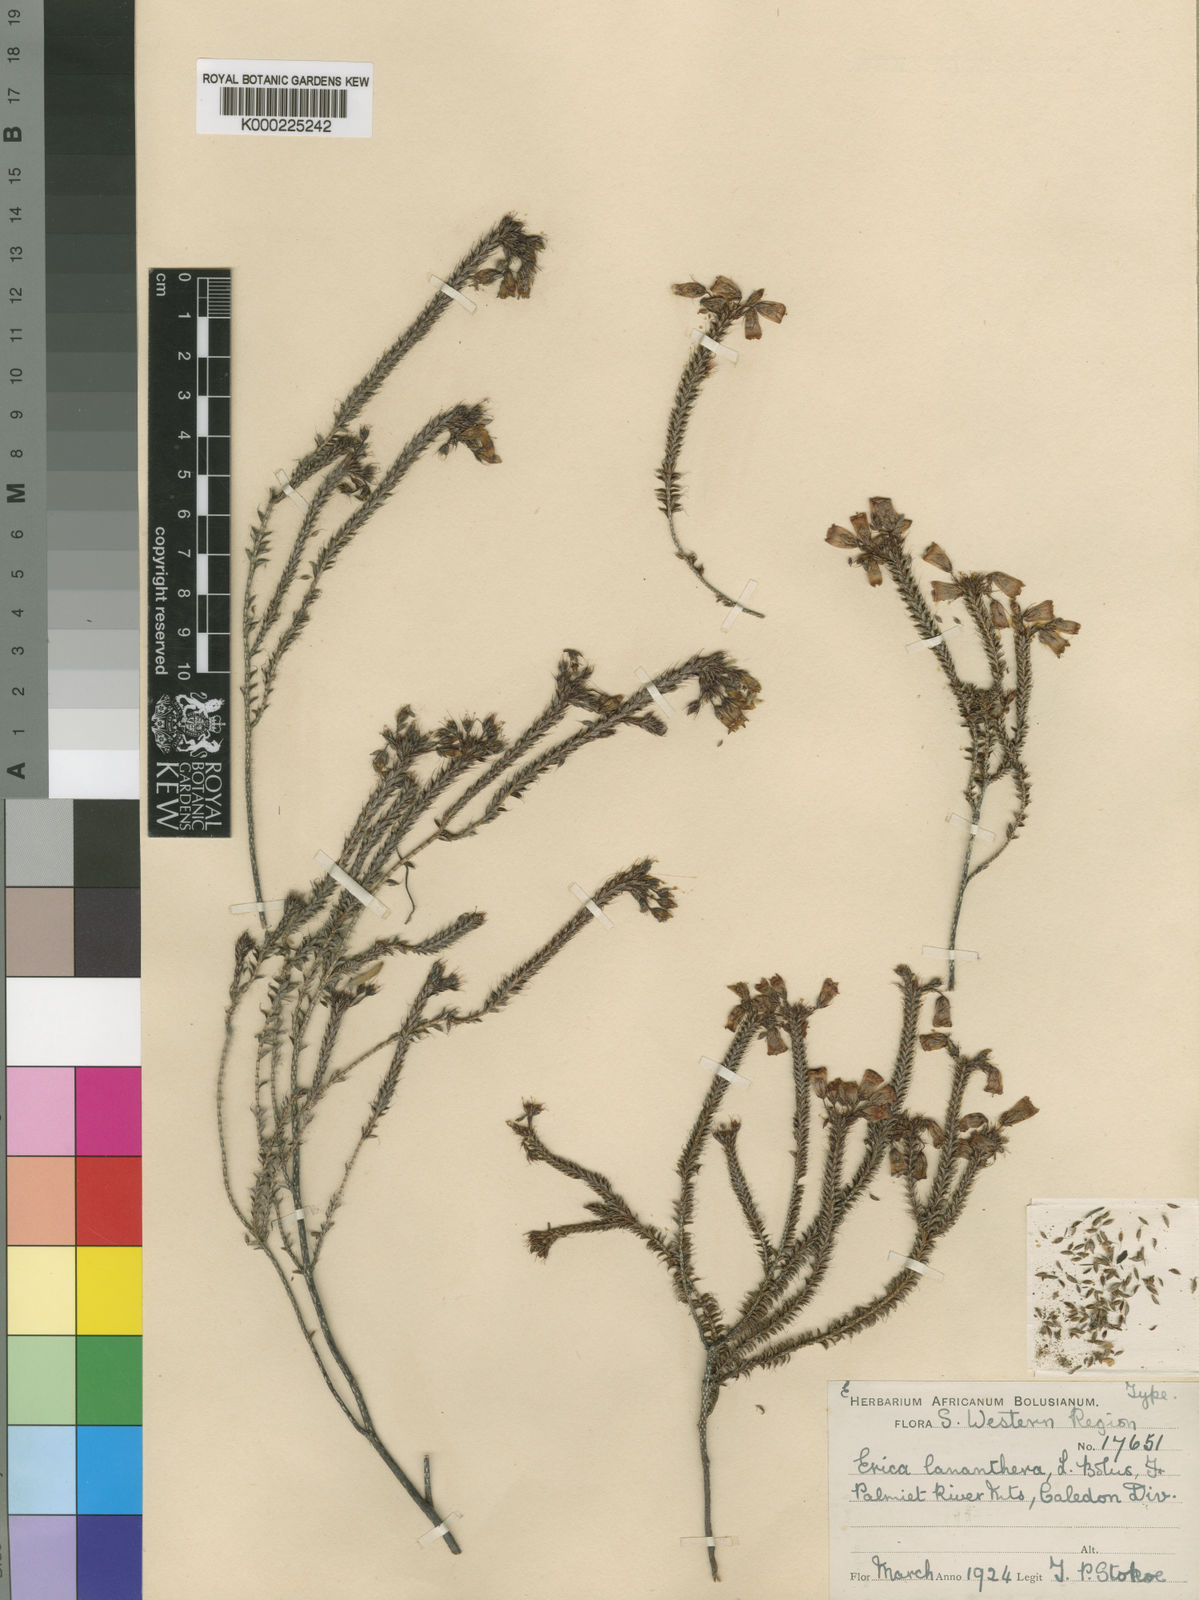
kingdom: Plantae
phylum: Tracheophyta
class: Magnoliopsida
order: Ericales
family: Ericaceae
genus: Erica
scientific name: Erica lananthera
